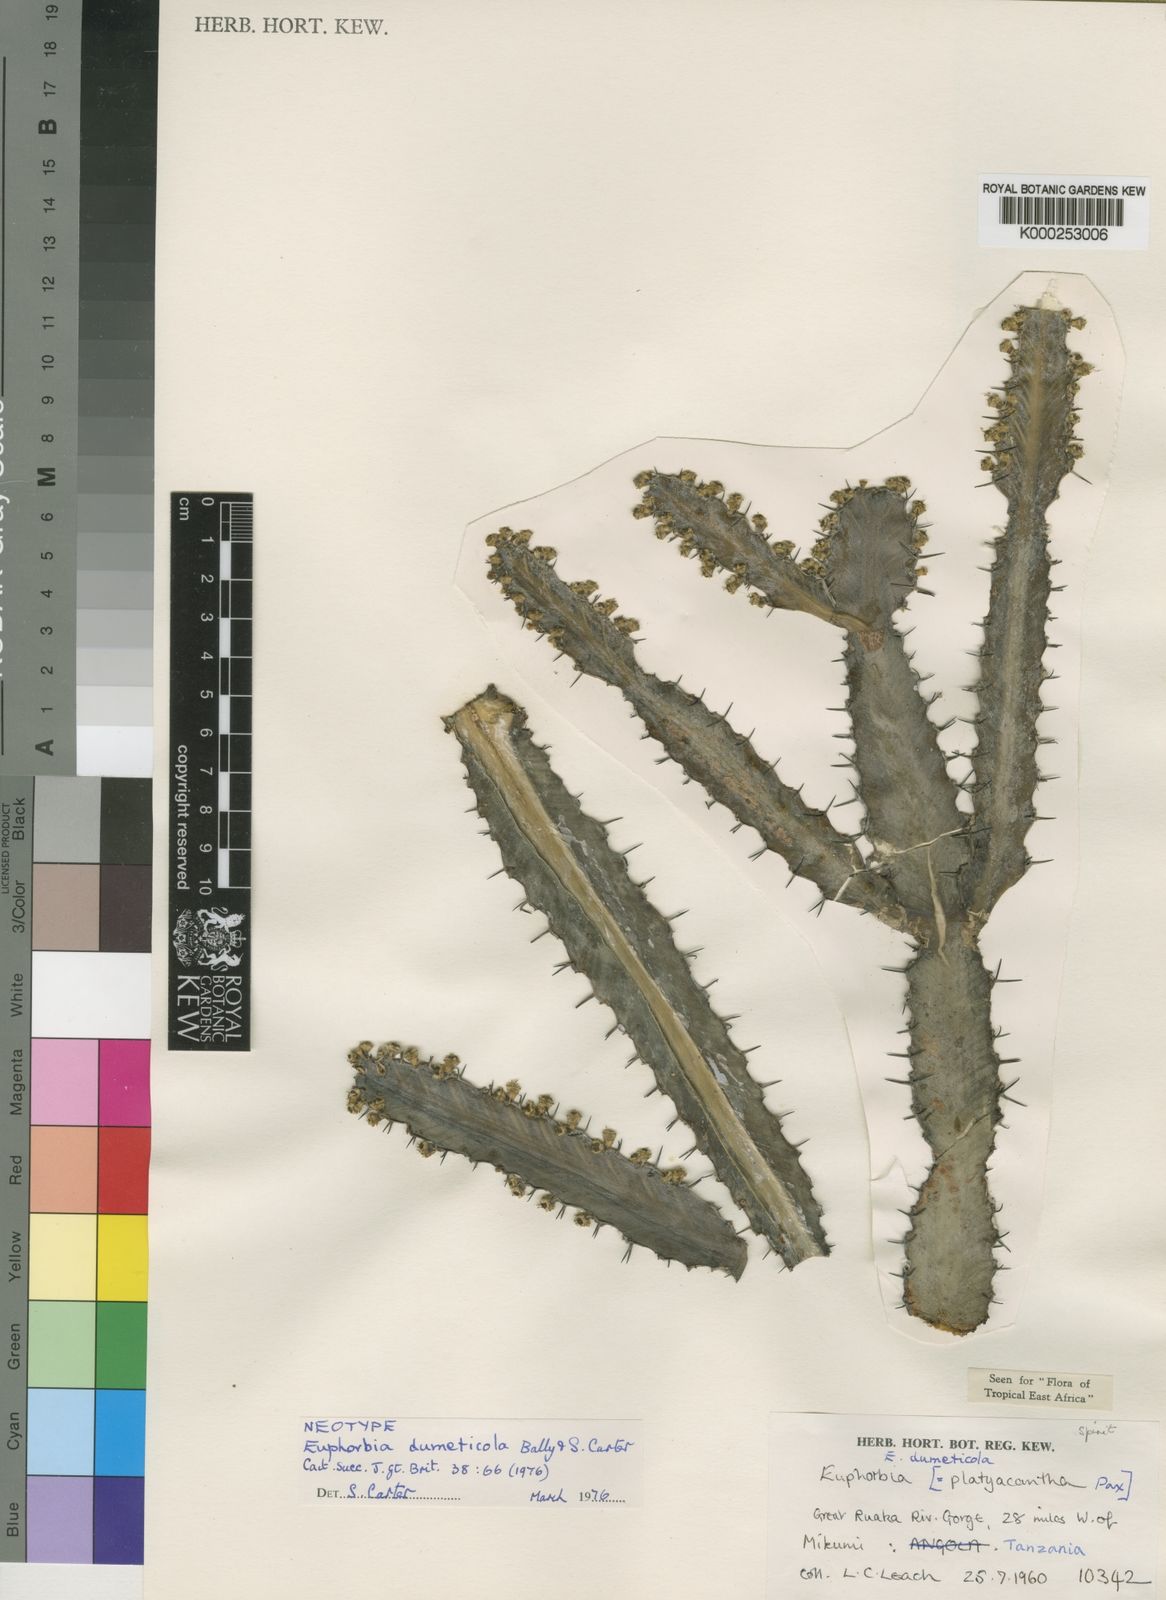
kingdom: Plantae
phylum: Tracheophyta
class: Magnoliopsida
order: Malpighiales
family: Euphorbiaceae
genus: Euphorbia
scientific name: Euphorbia dumeticola
